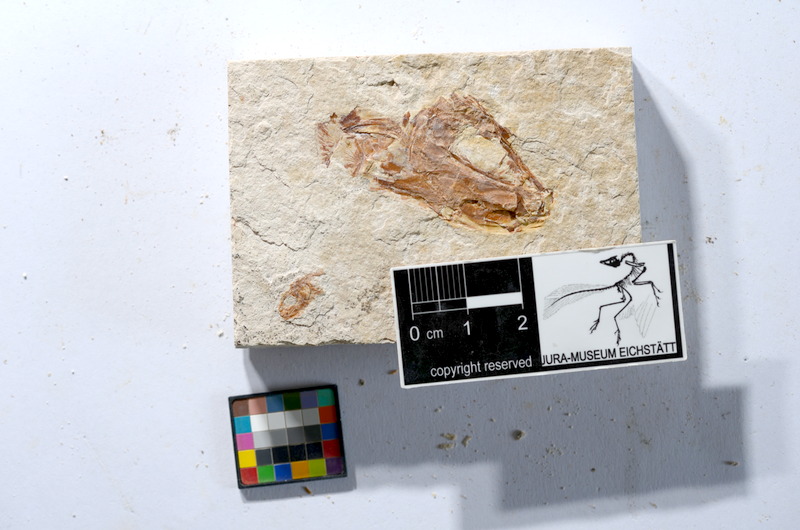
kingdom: Animalia
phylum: Chordata
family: Ascalaboidae
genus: Tharsis
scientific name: Tharsis dubius
